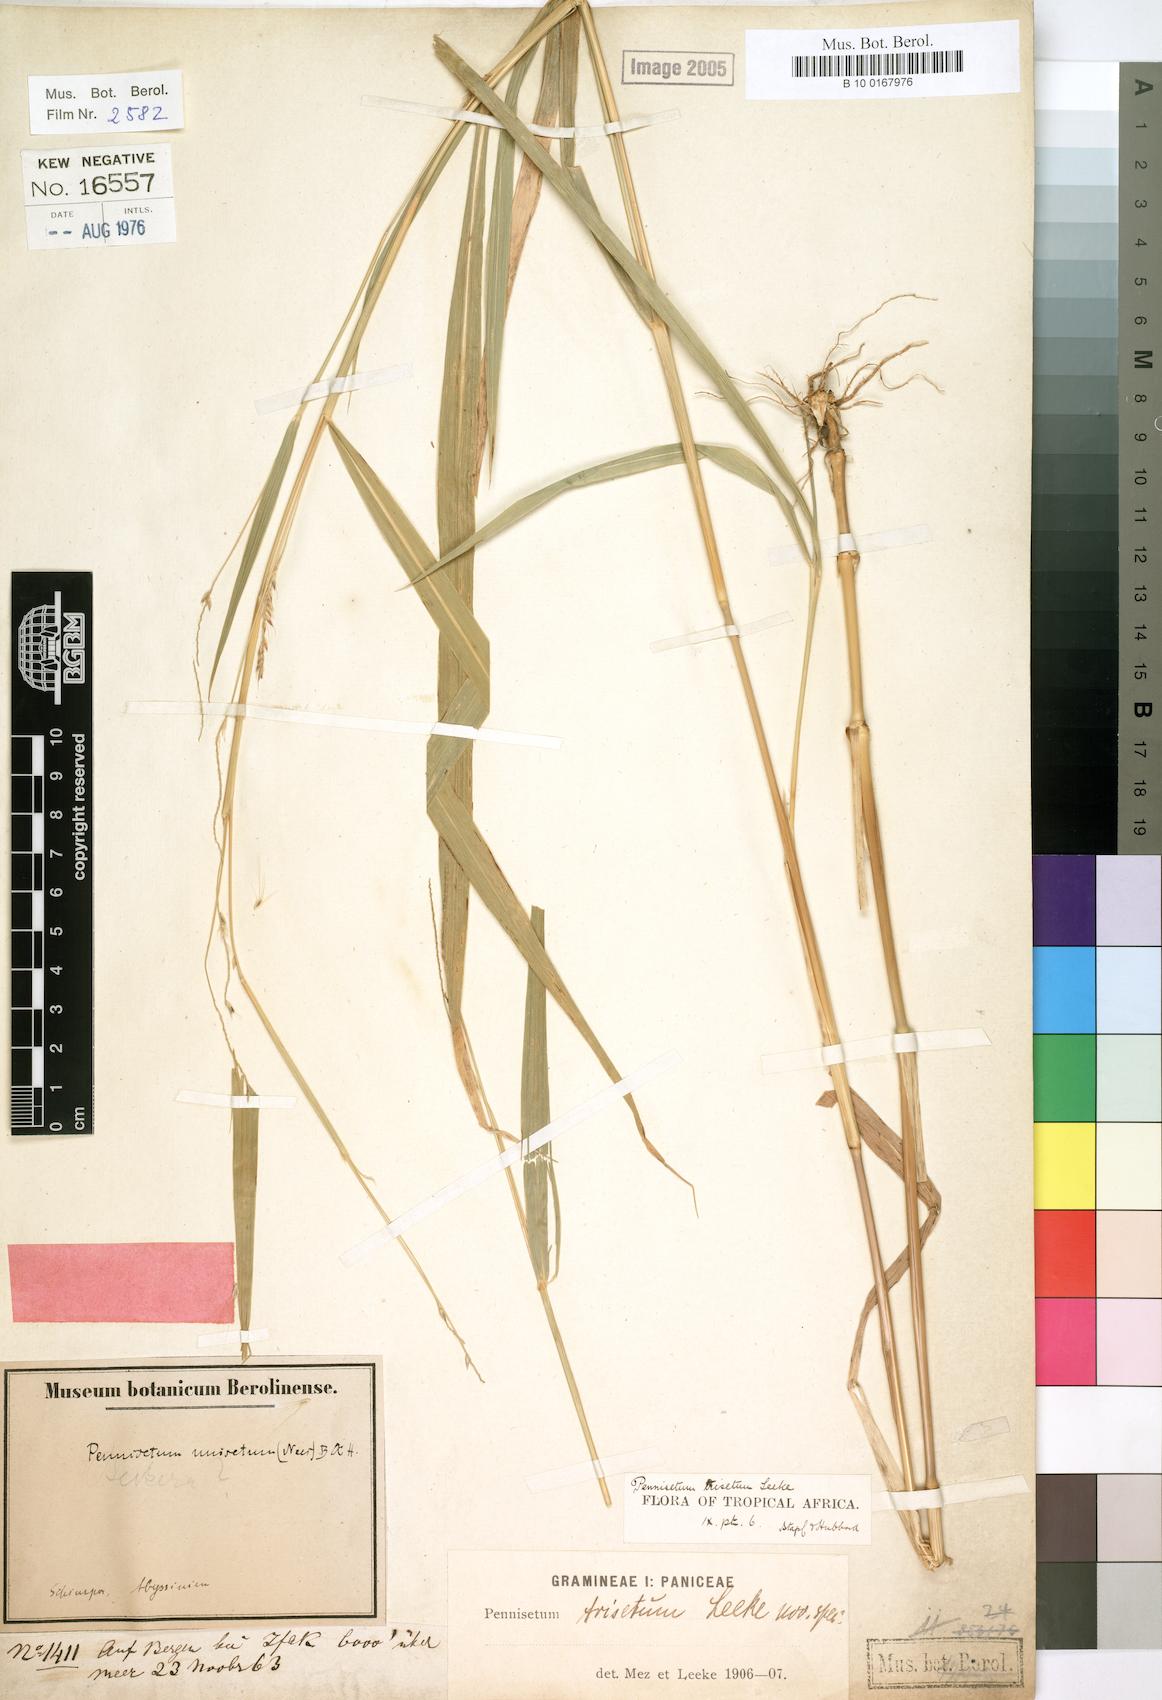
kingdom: Plantae
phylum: Tracheophyta
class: Liliopsida
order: Poales
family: Poaceae
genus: Cenchrus
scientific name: Cenchrus trisetus
